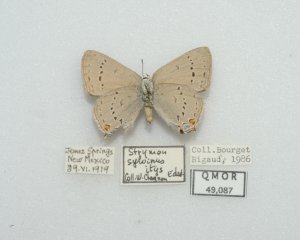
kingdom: Animalia
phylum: Arthropoda
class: Insecta
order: Lepidoptera
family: Lycaenidae
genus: Strymon
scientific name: Strymon sylvinus
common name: Sylvan Hairstreak
